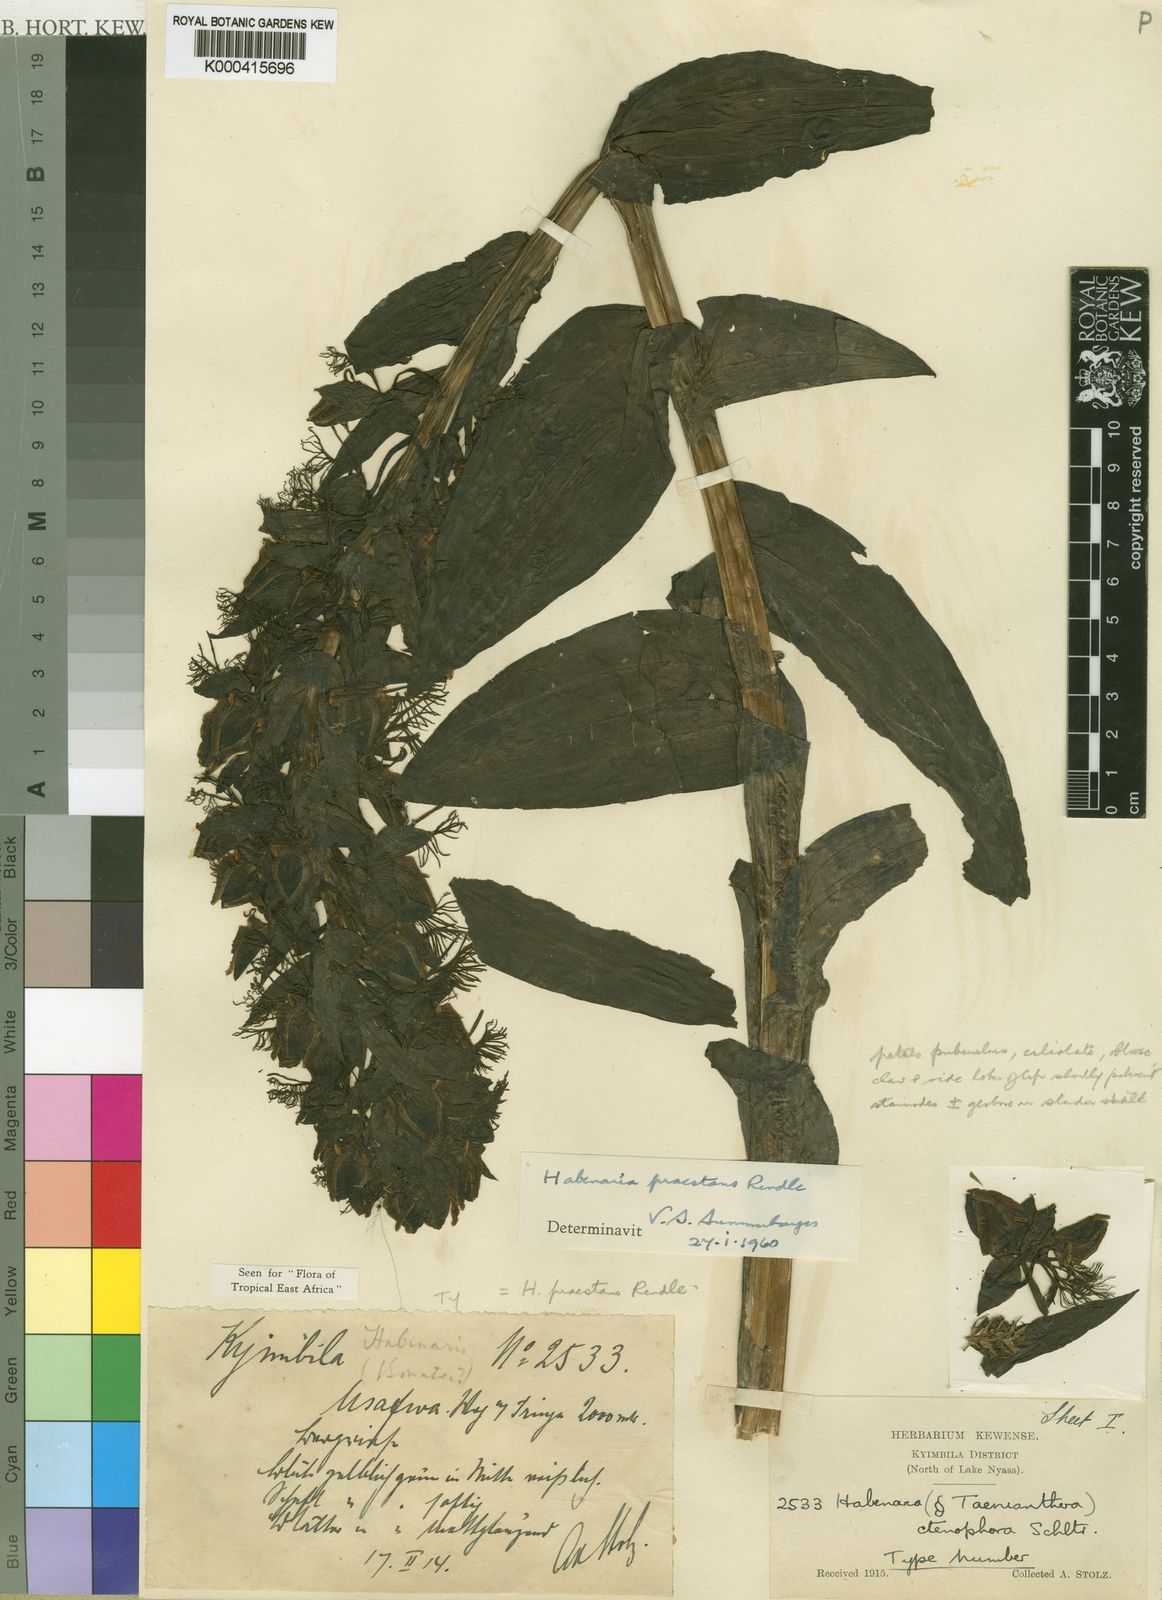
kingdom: Plantae
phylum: Tracheophyta
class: Liliopsida
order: Asparagales
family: Orchidaceae
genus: Habenaria
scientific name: Habenaria praestans
